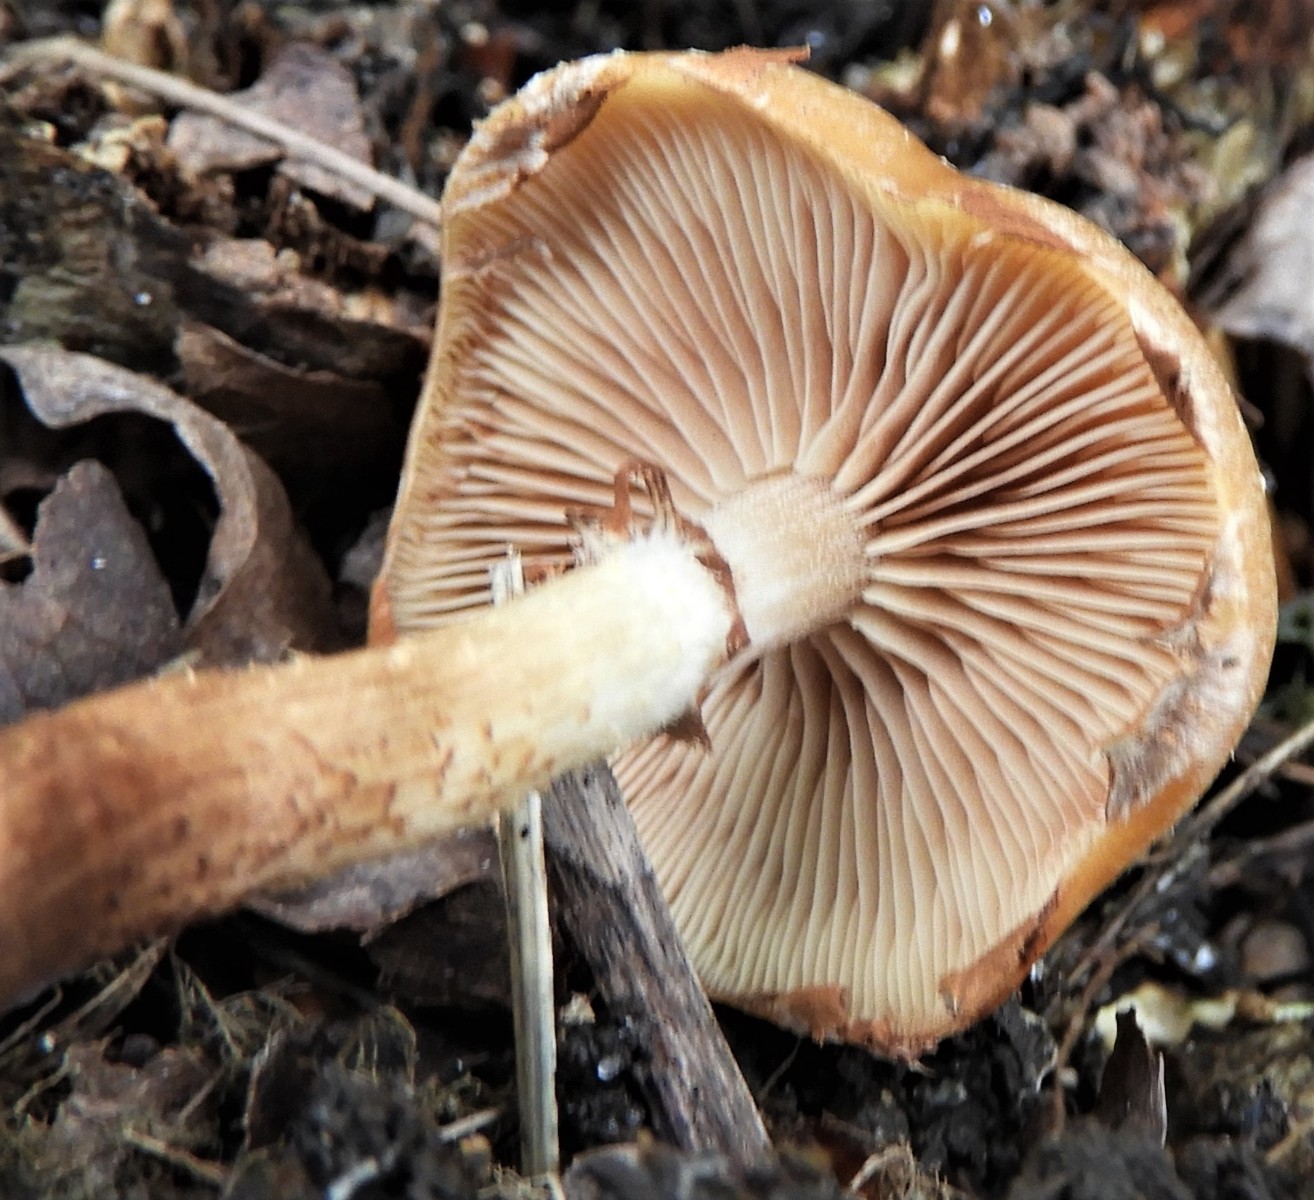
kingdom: Fungi
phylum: Basidiomycota
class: Agaricomycetes
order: Agaricales
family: Strophariaceae
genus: Kuehneromyces
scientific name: Kuehneromyces mutabilis
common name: foranderlig skælhat
